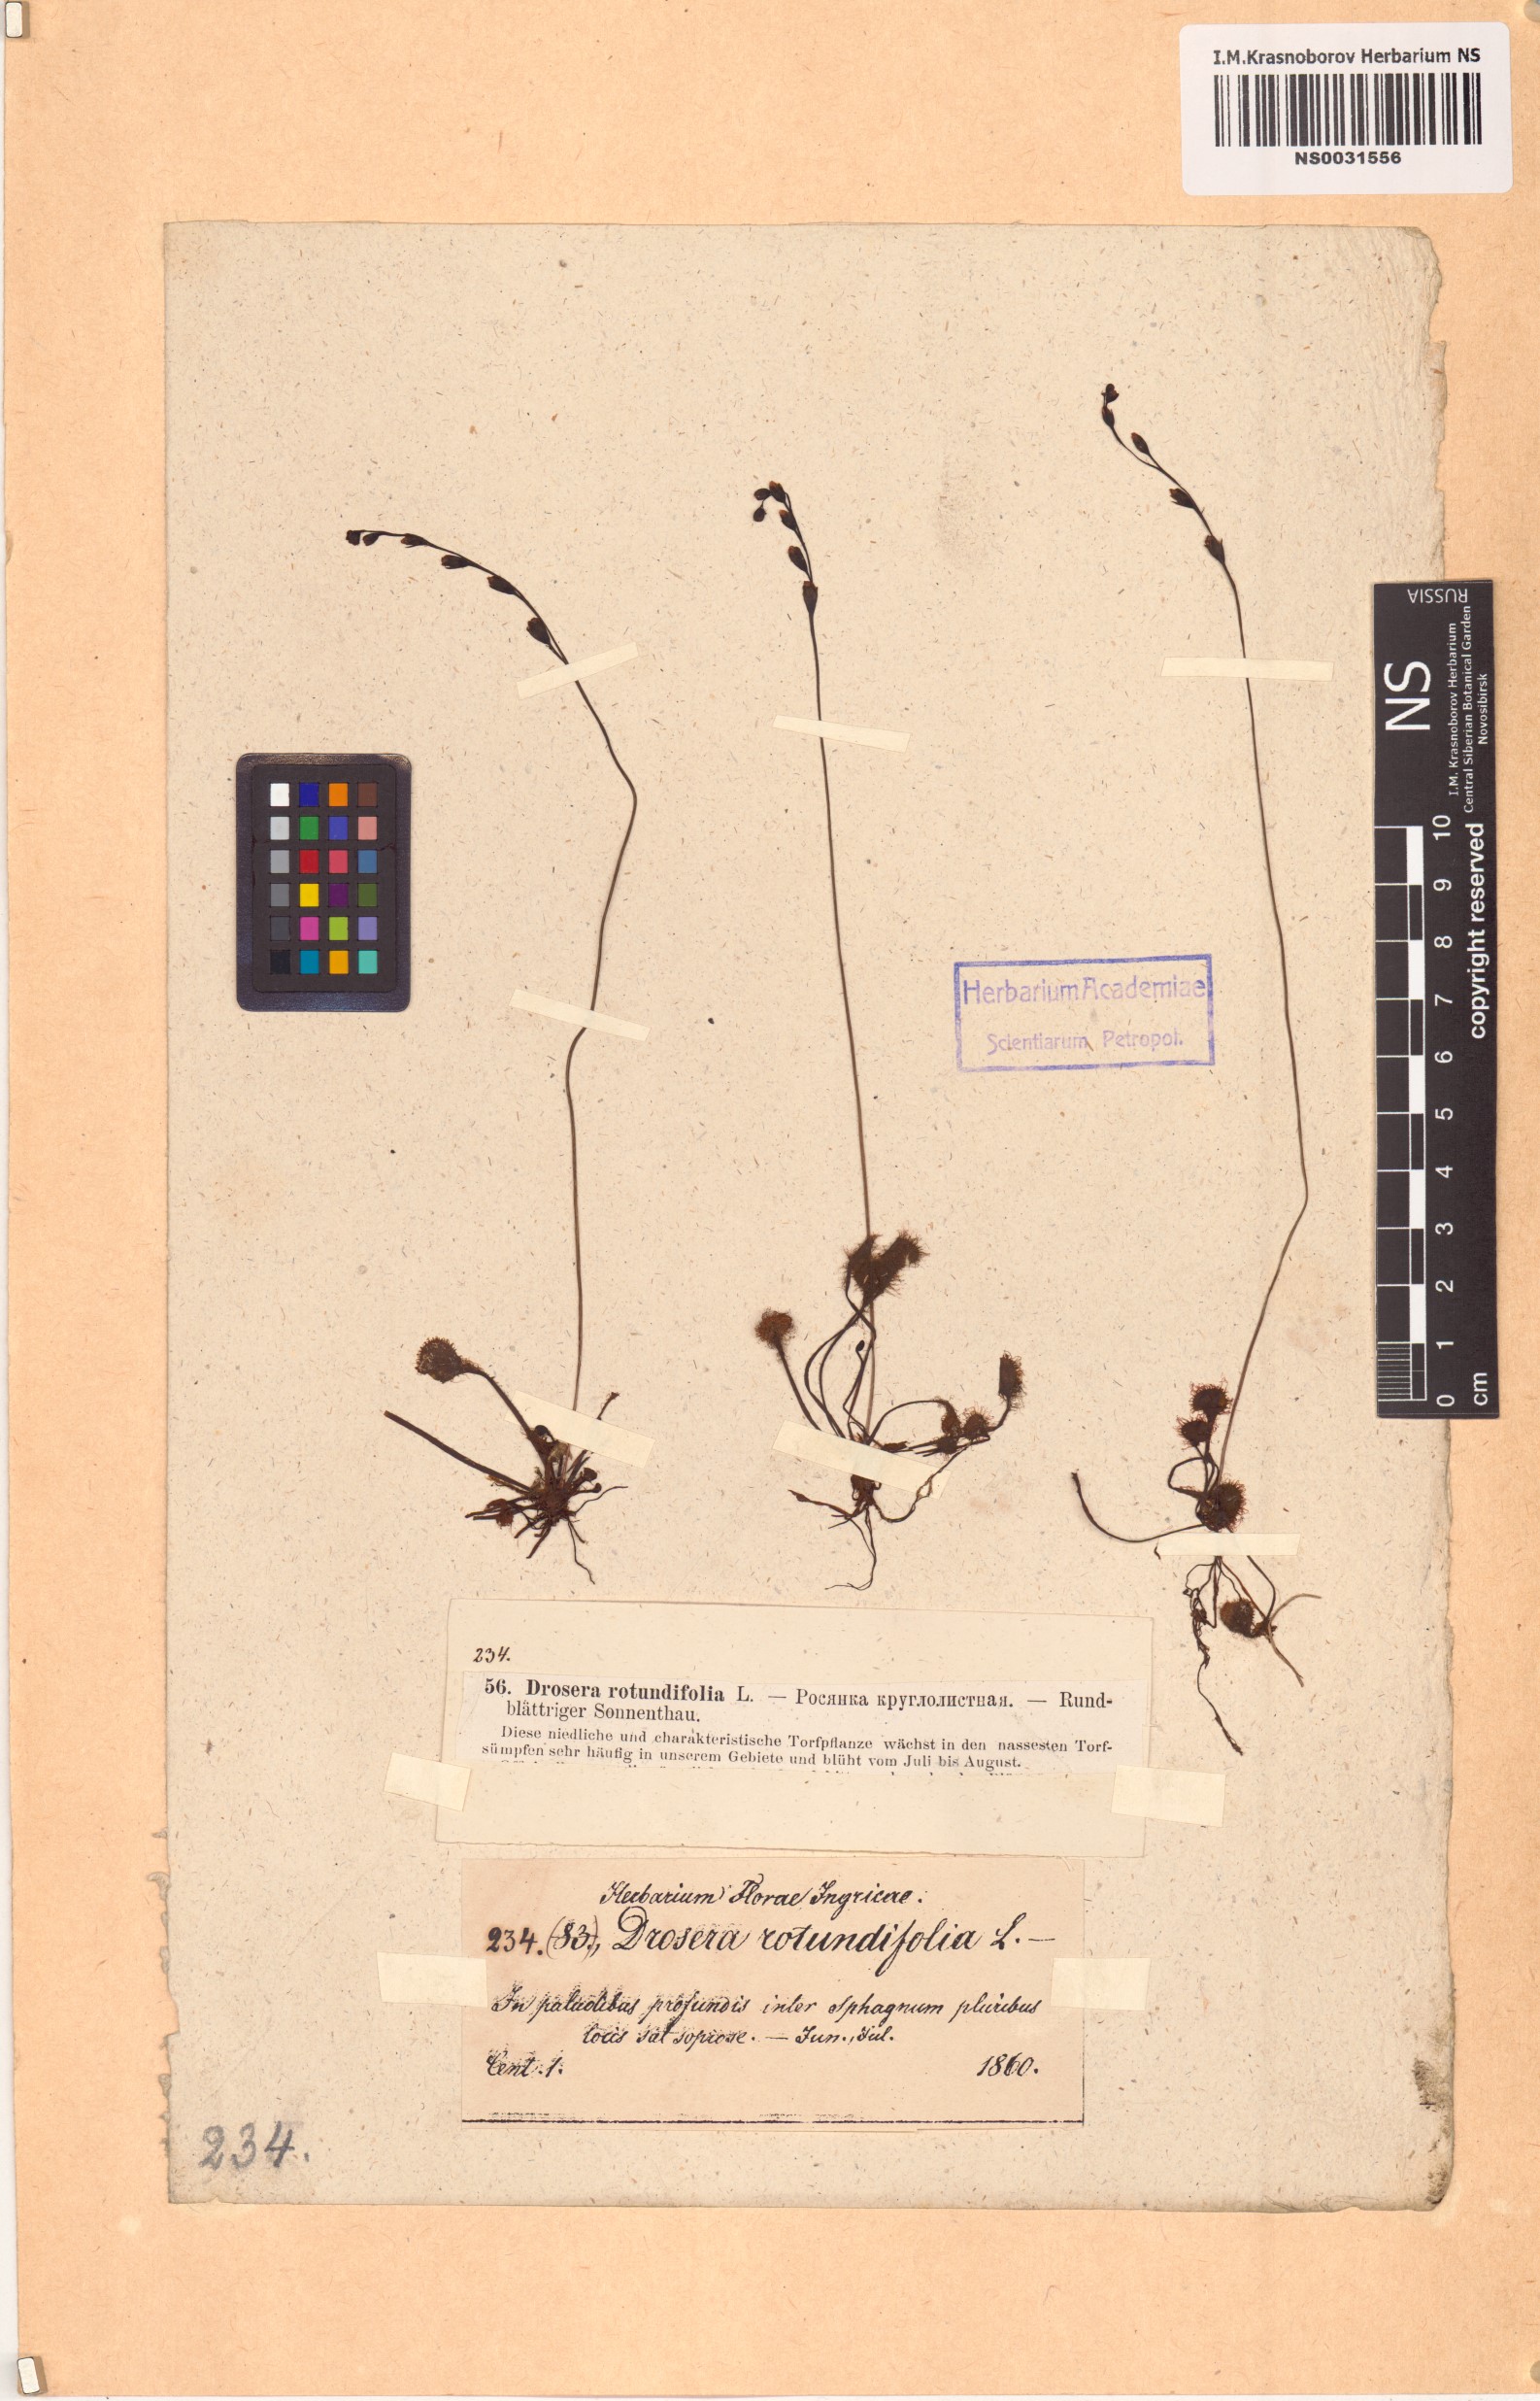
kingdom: Plantae
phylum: Tracheophyta
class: Magnoliopsida
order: Caryophyllales
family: Droseraceae
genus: Drosera
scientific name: Drosera rotundifolia
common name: Round-leaved sundew
